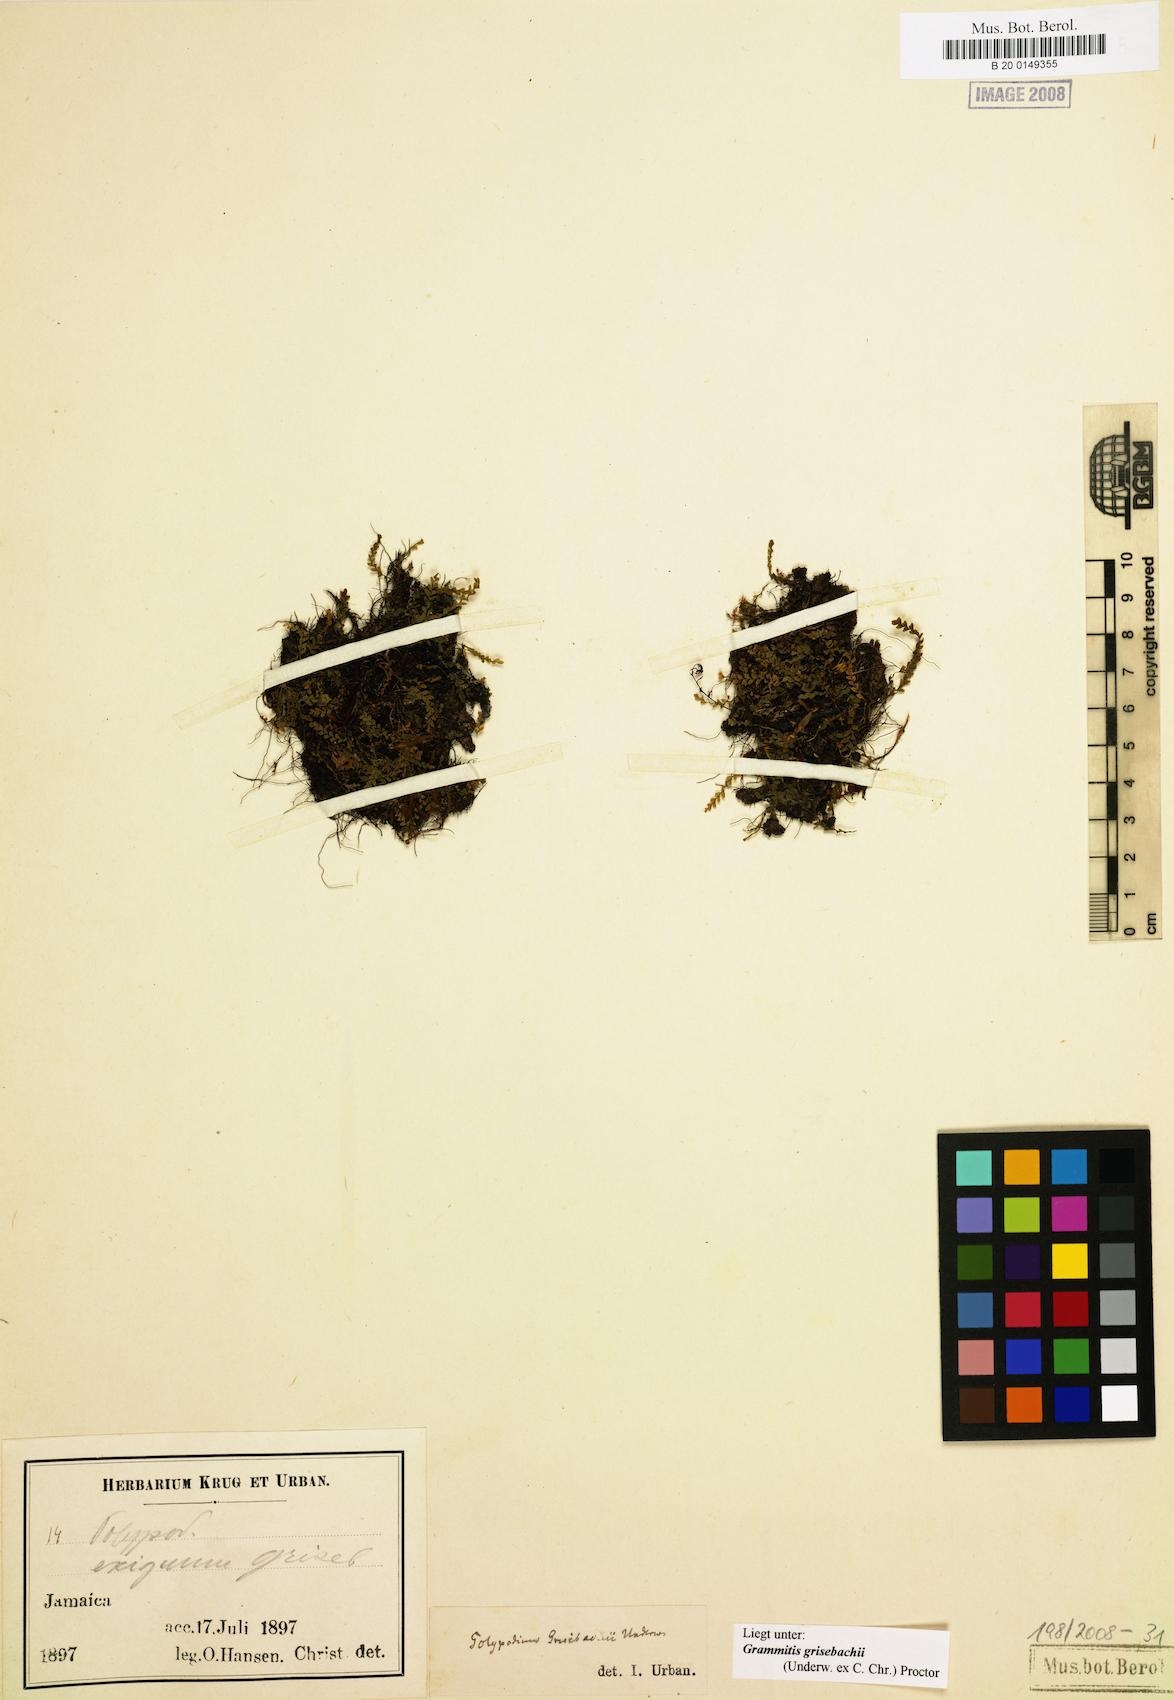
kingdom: Plantae
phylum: Tracheophyta
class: Polypodiopsida
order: Polypodiales
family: Polypodiaceae
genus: Moranopteris
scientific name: Moranopteris grisebachii
